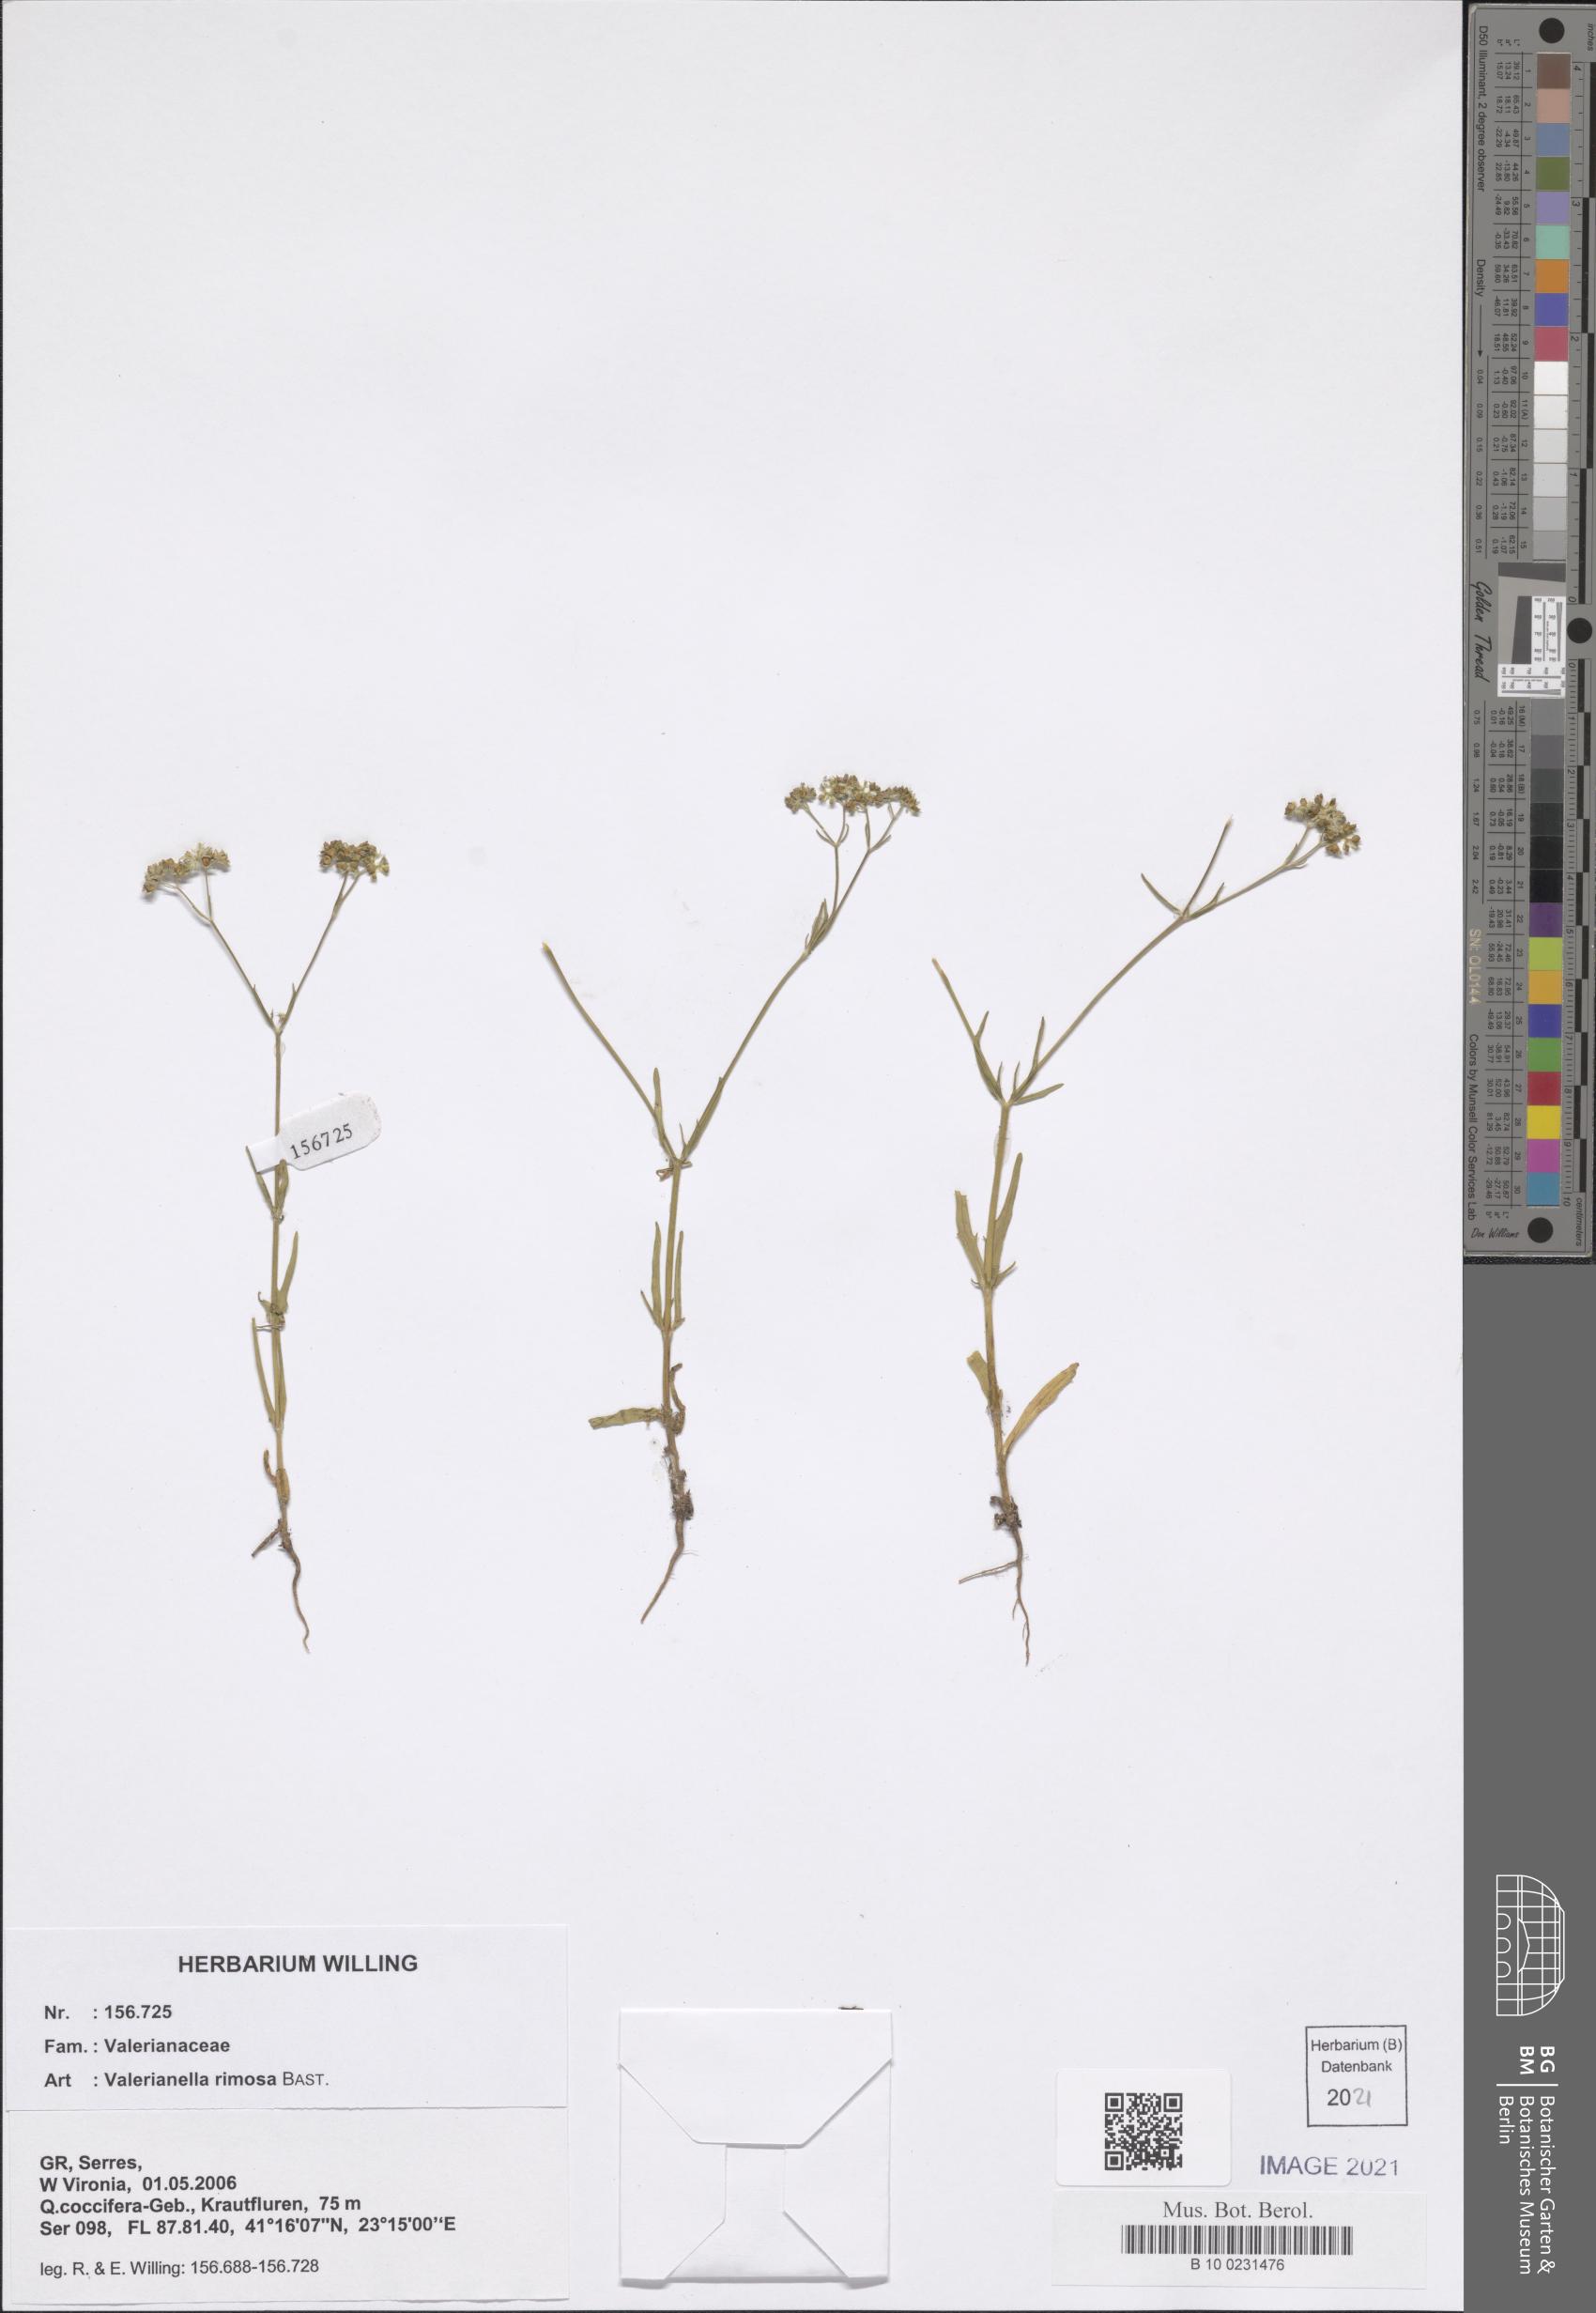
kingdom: Plantae
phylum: Tracheophyta
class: Magnoliopsida
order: Dipsacales
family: Caprifoliaceae
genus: Valerianella
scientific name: Valerianella rimosa
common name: Broad-fruited cornsalad
